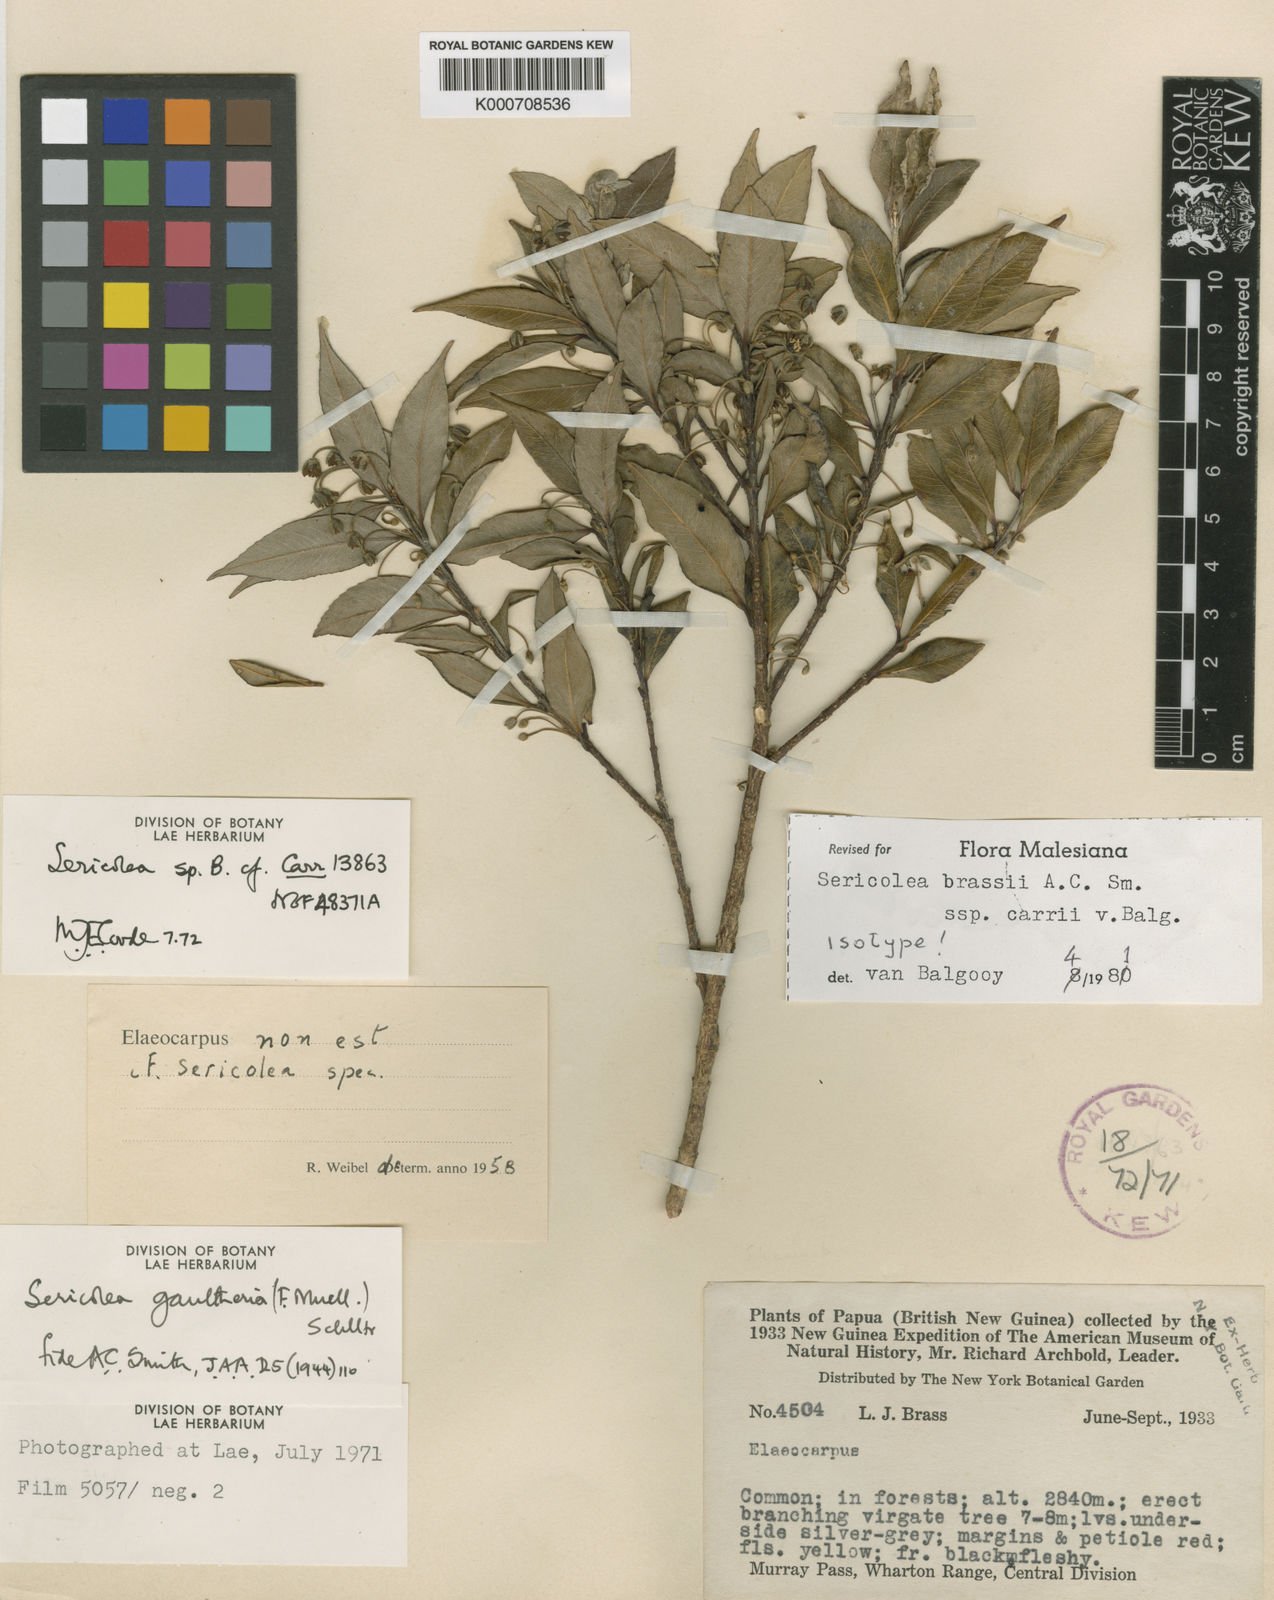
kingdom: Plantae
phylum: Tracheophyta
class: Magnoliopsida
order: Oxalidales
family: Elaeocarpaceae
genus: Sericolea
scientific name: Sericolea brassii
